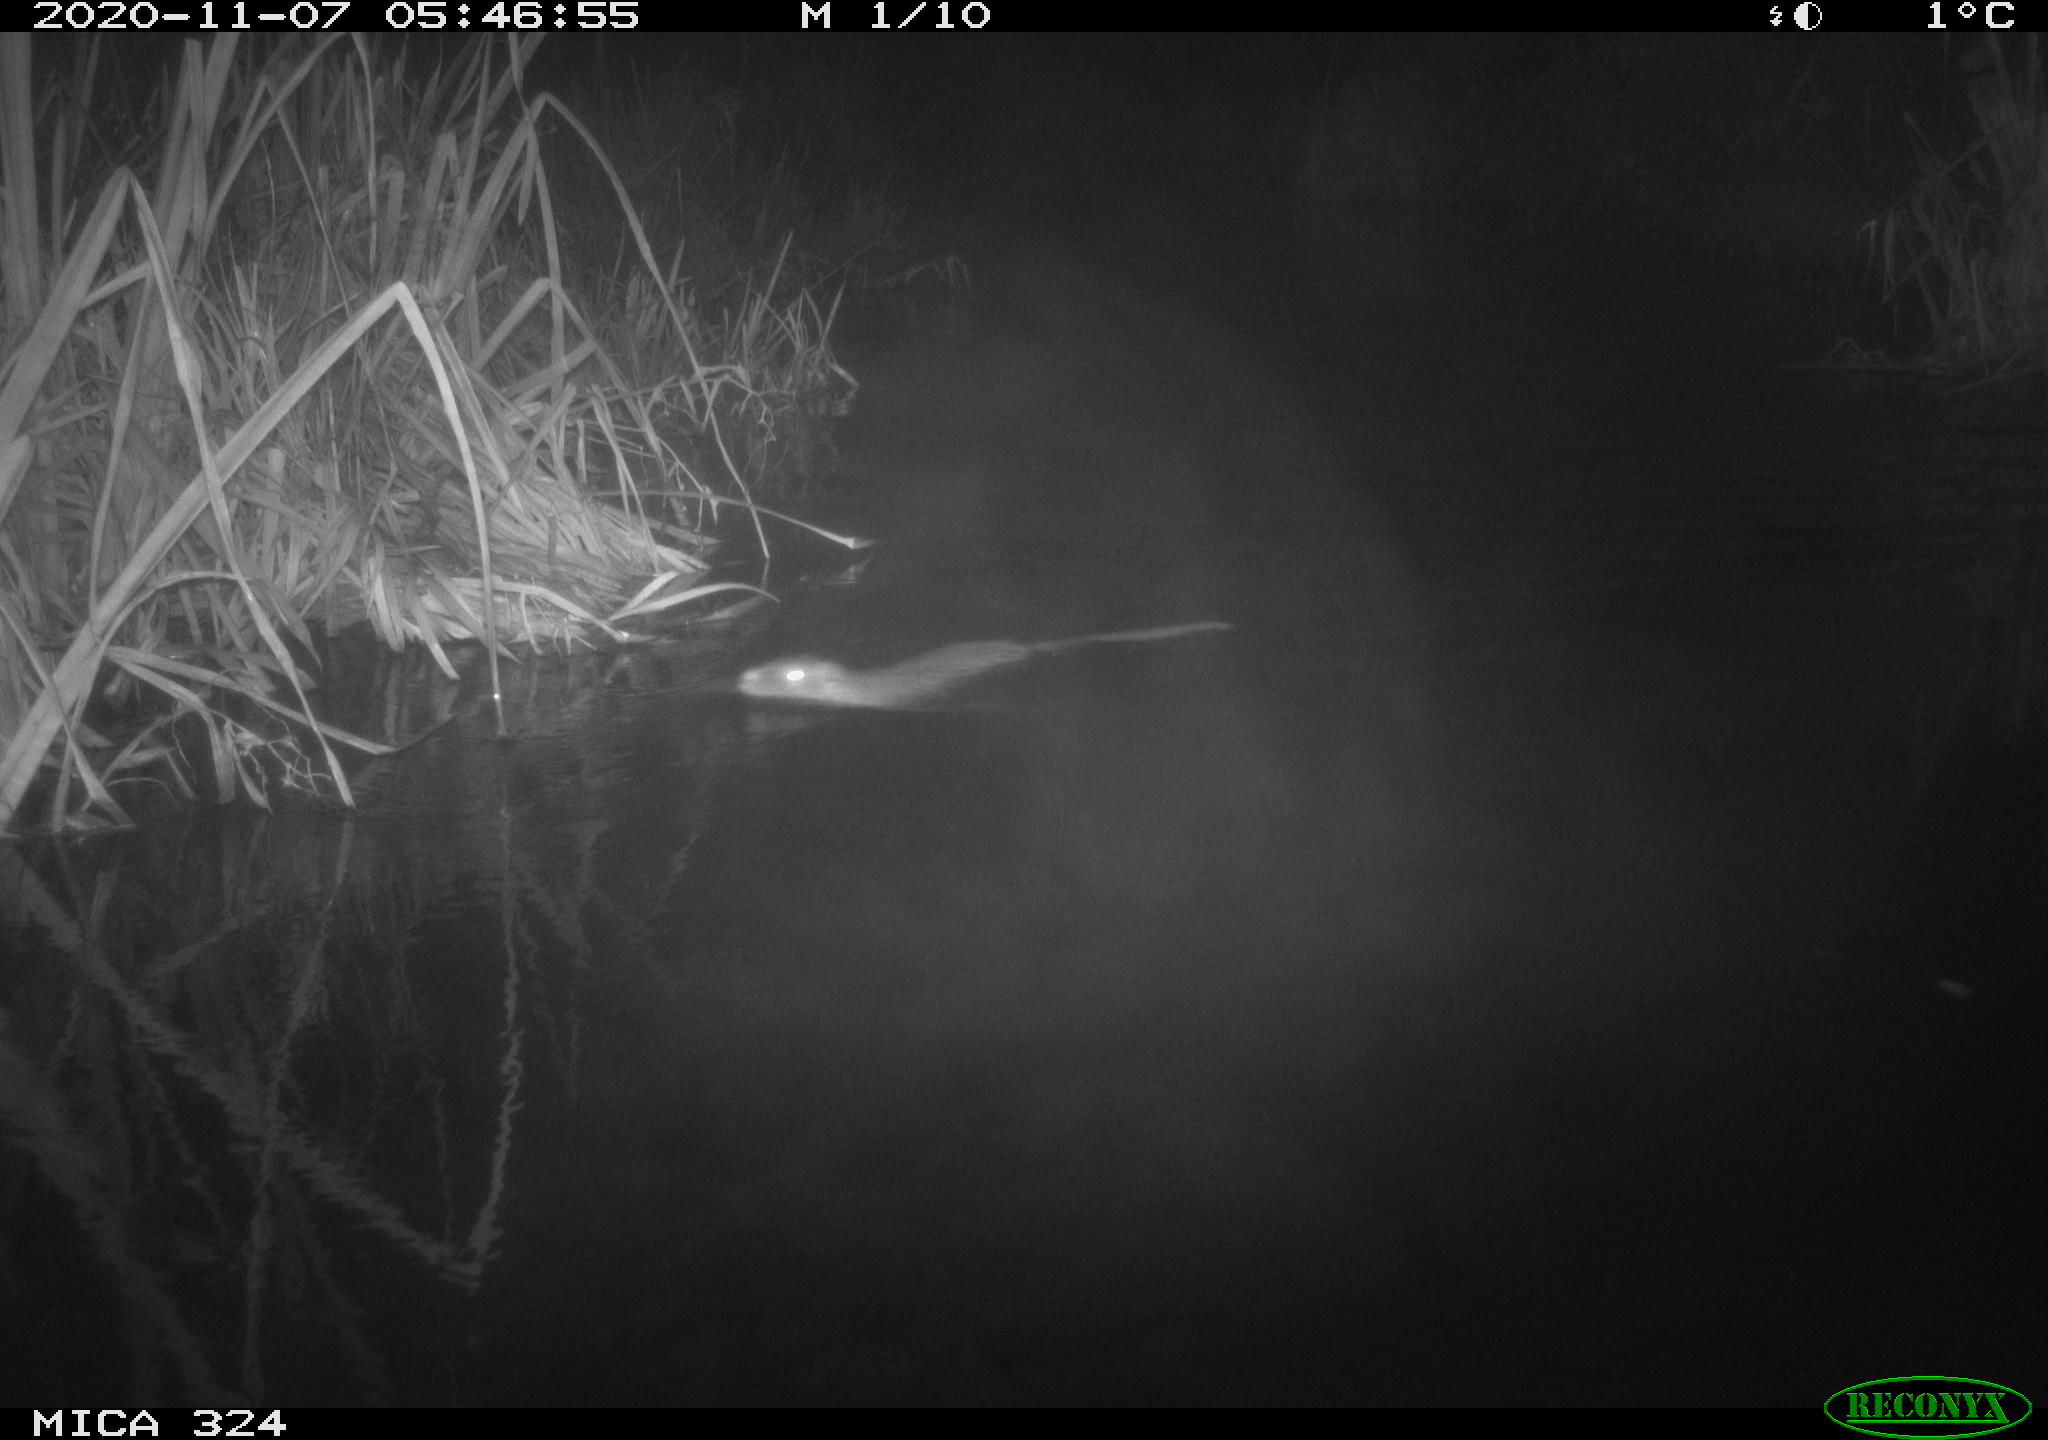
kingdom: Animalia
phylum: Chordata
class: Mammalia
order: Rodentia
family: Myocastoridae
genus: Myocastor
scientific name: Myocastor coypus
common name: Coypu
